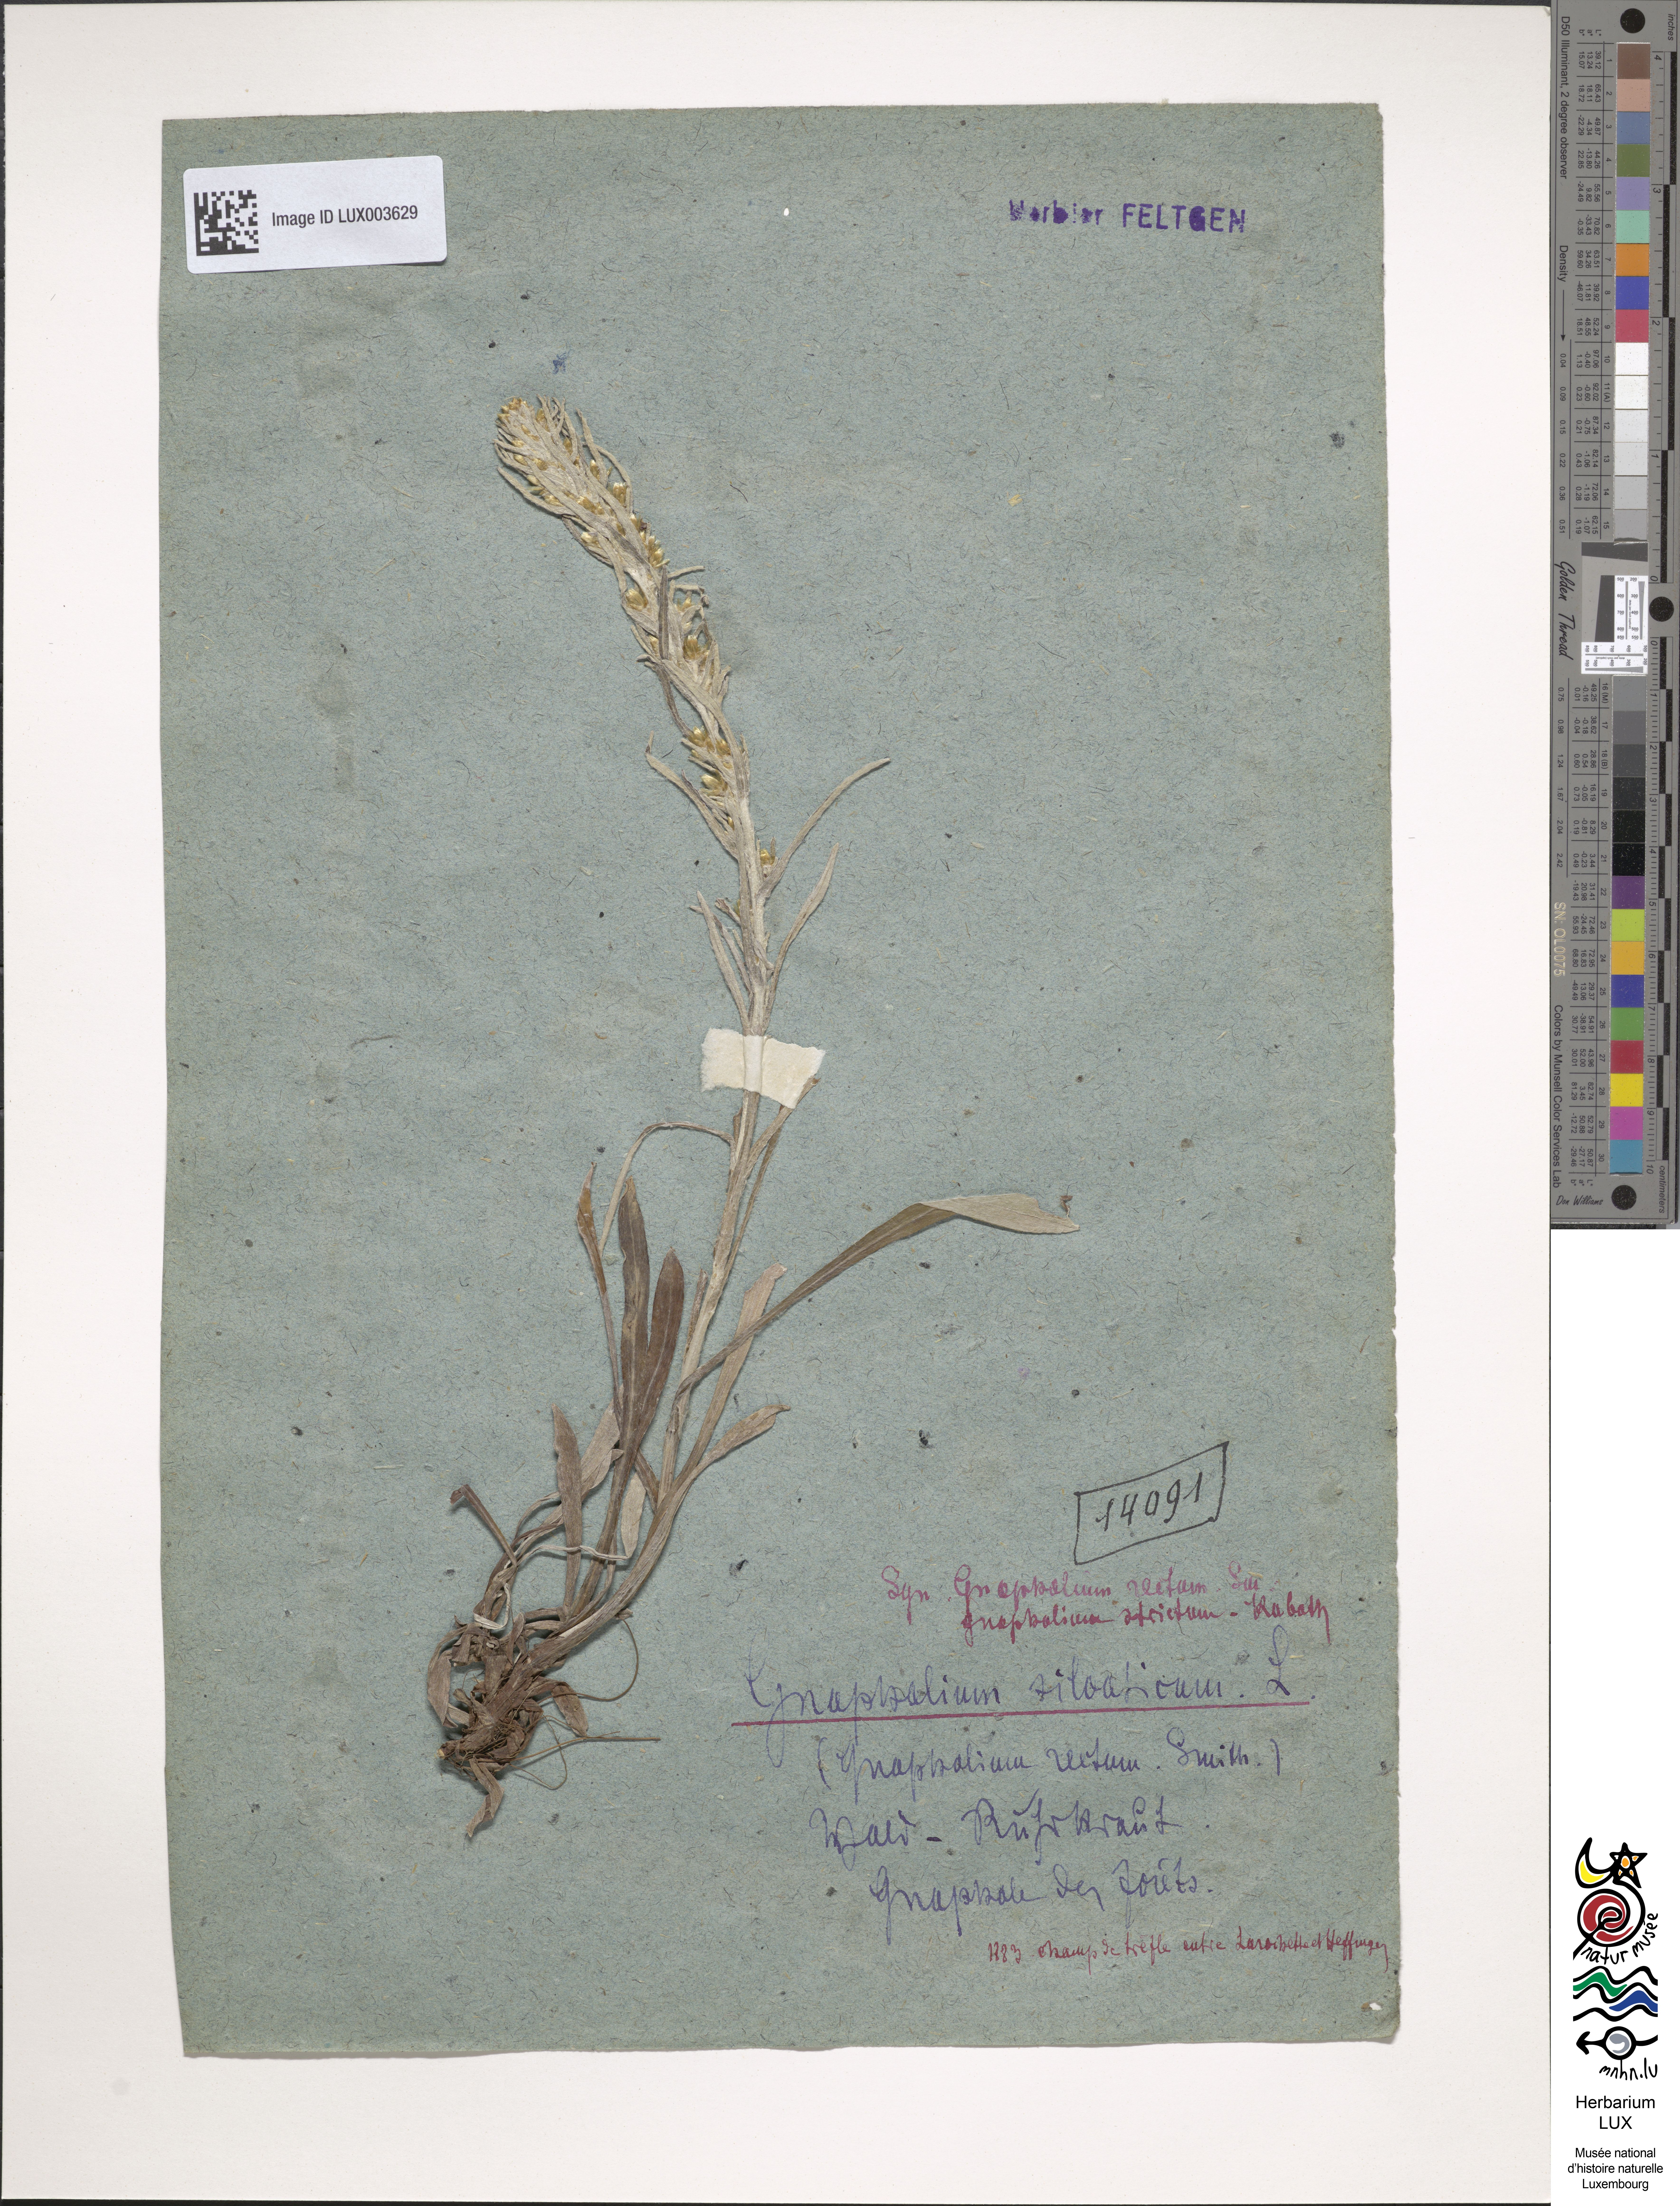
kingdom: Plantae
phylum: Tracheophyta
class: Magnoliopsida
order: Asterales
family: Asteraceae
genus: Omalotheca
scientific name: Omalotheca sylvatica
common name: Heath cudweed
